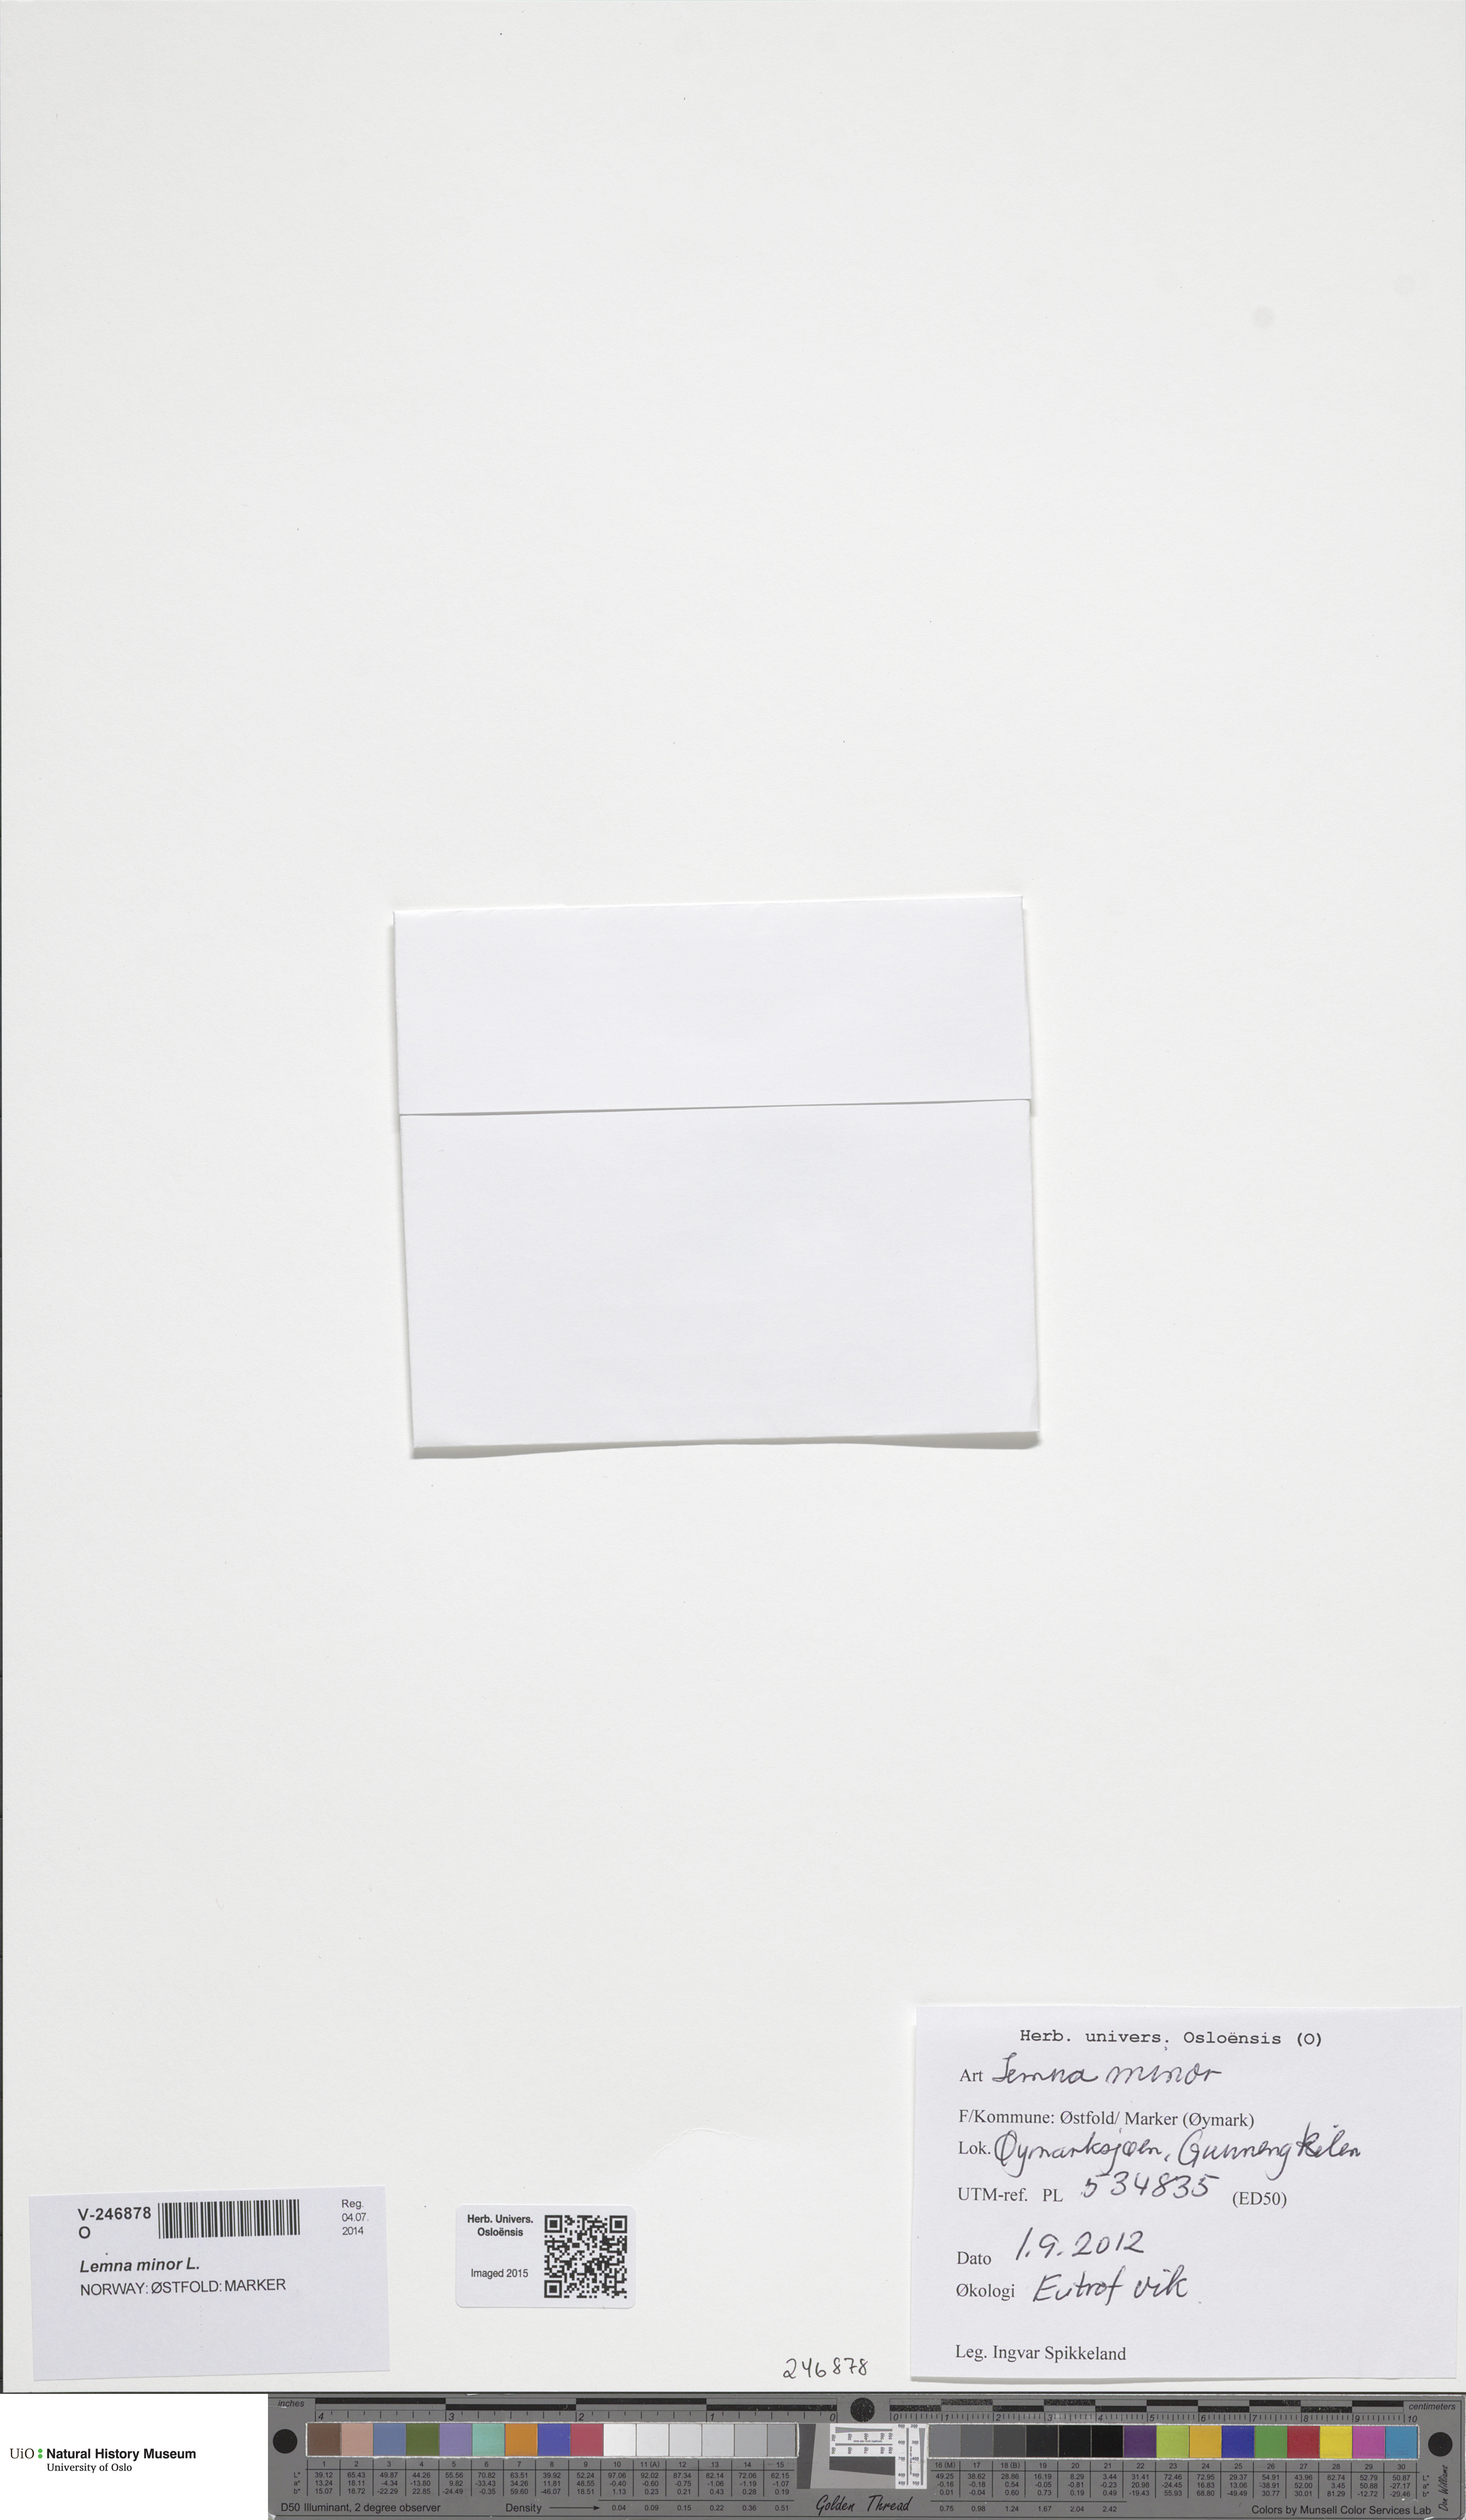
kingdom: Plantae
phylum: Tracheophyta
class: Liliopsida
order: Alismatales
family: Araceae
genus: Lemna
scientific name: Lemna minor
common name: Common duckweed
